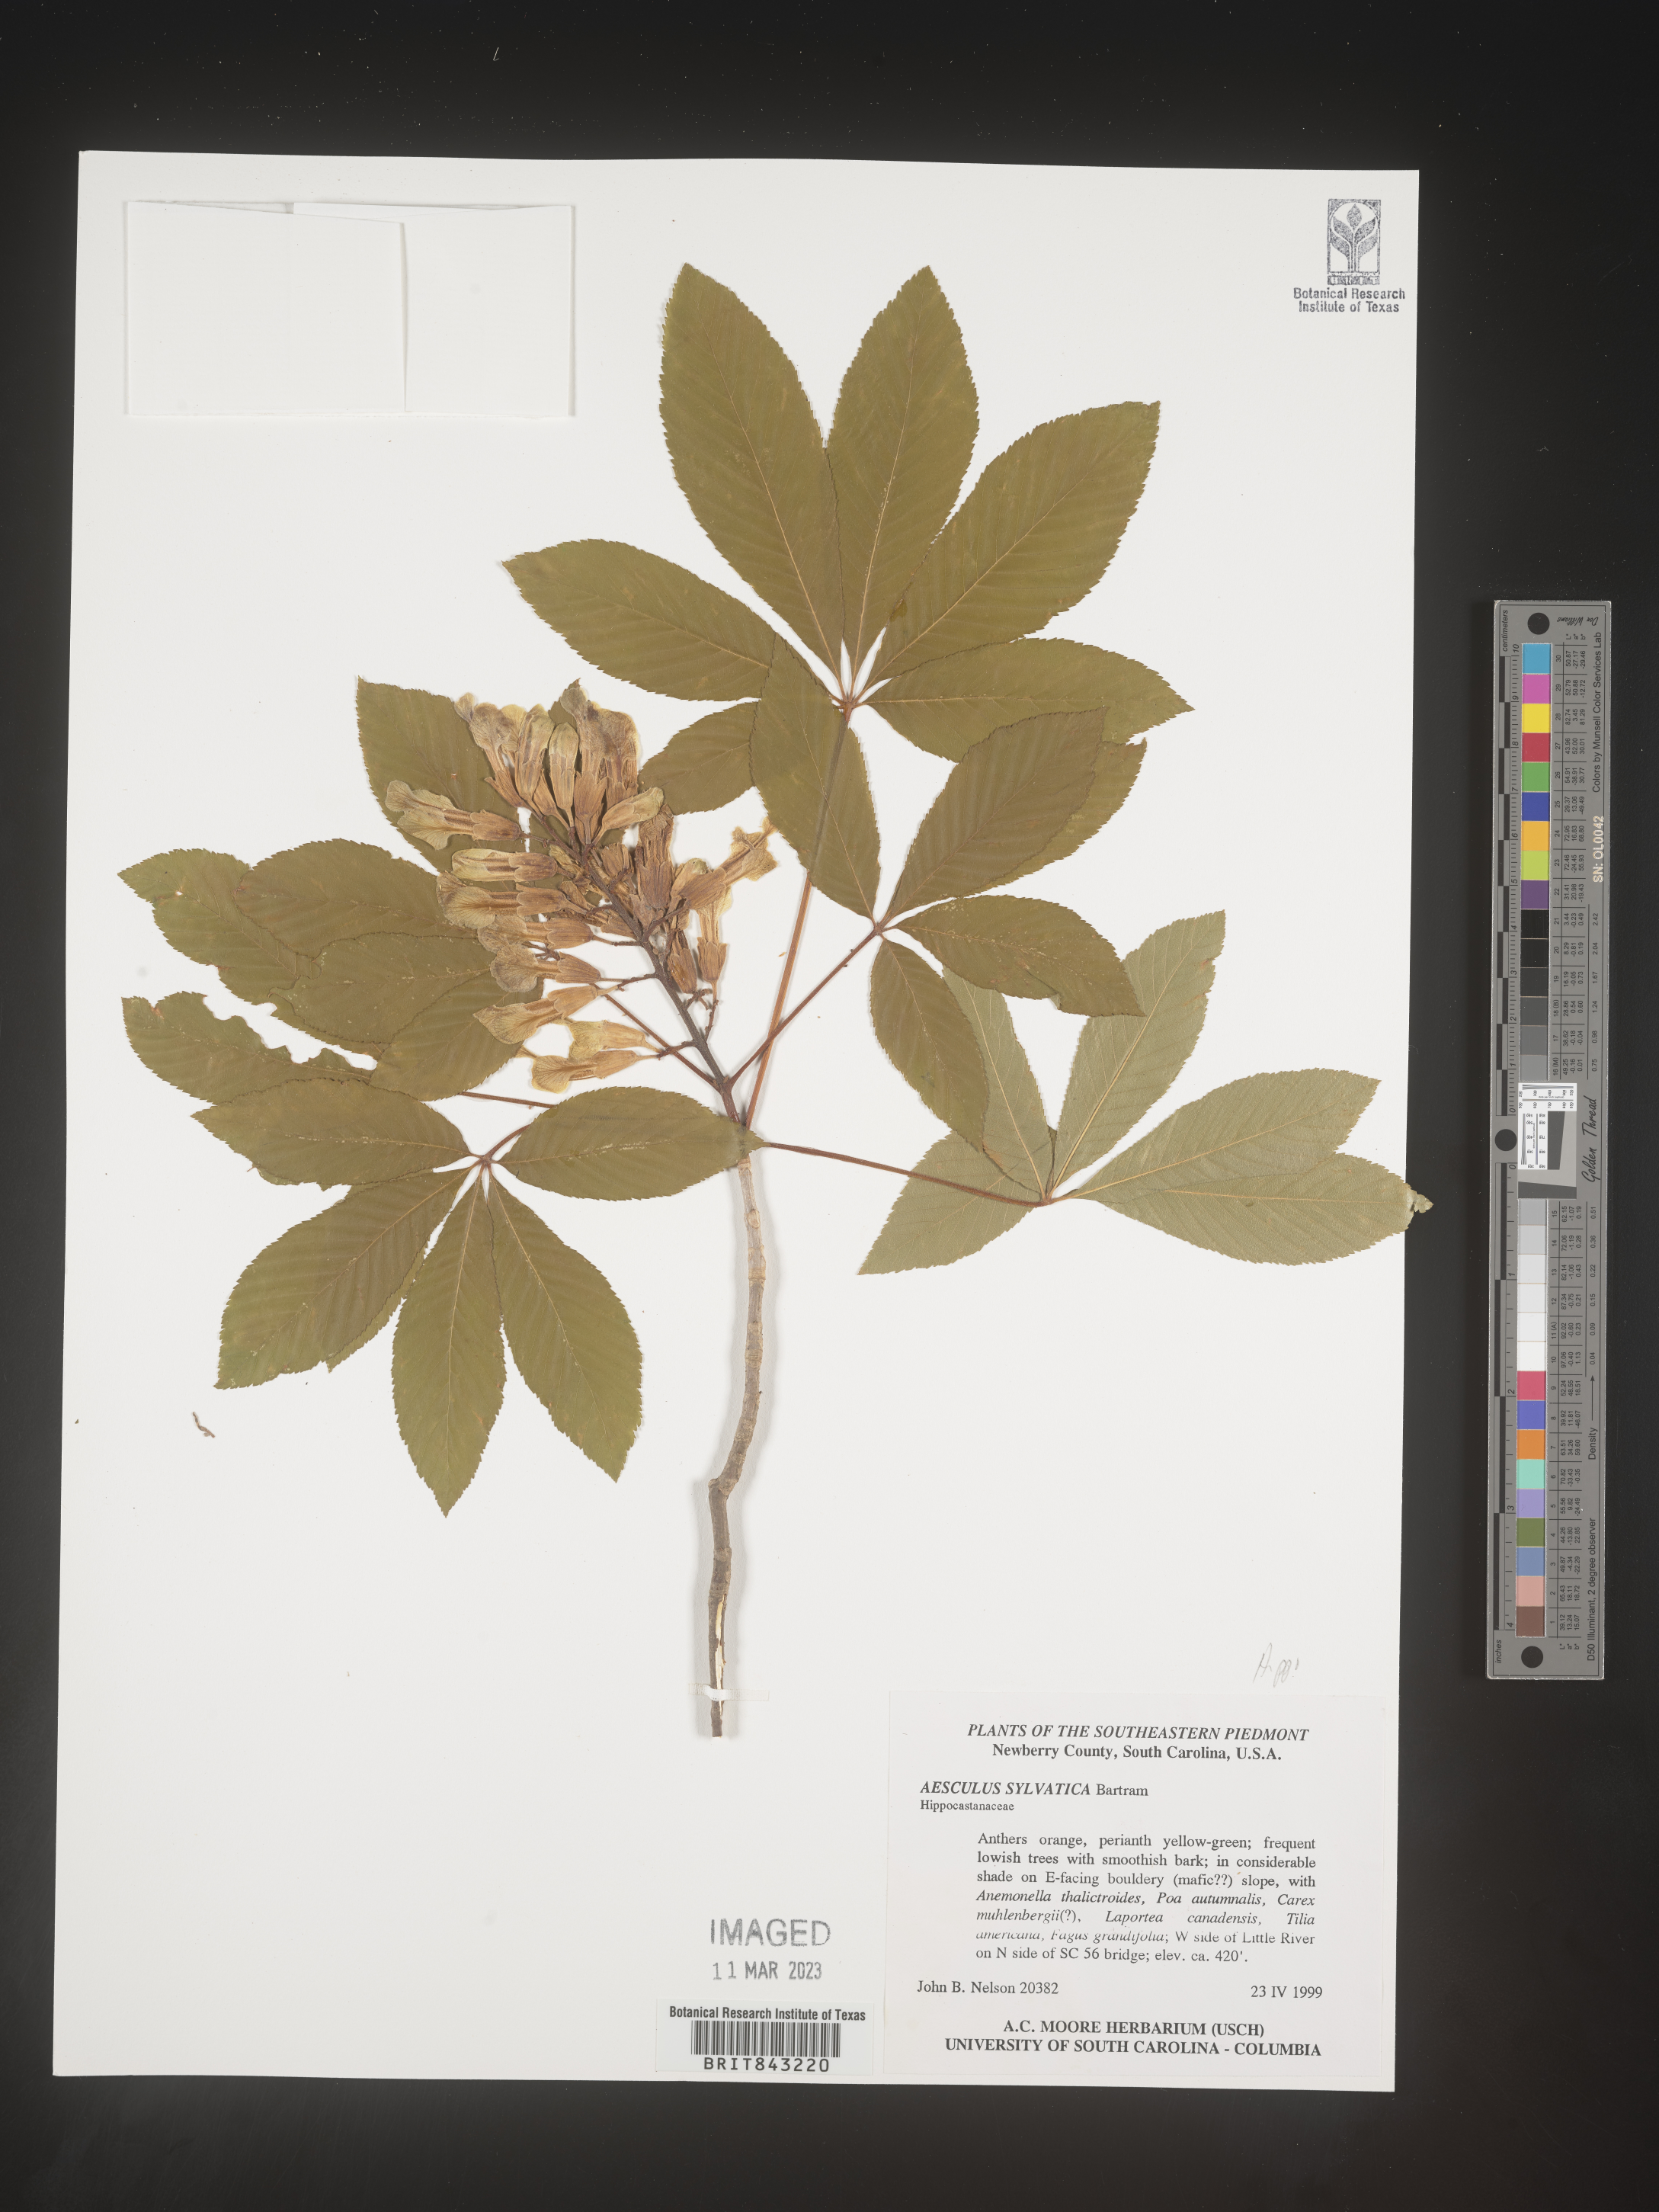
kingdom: Plantae
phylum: Tracheophyta
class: Magnoliopsida
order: Sapindales
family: Sapindaceae
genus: Aesculus
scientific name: Aesculus
